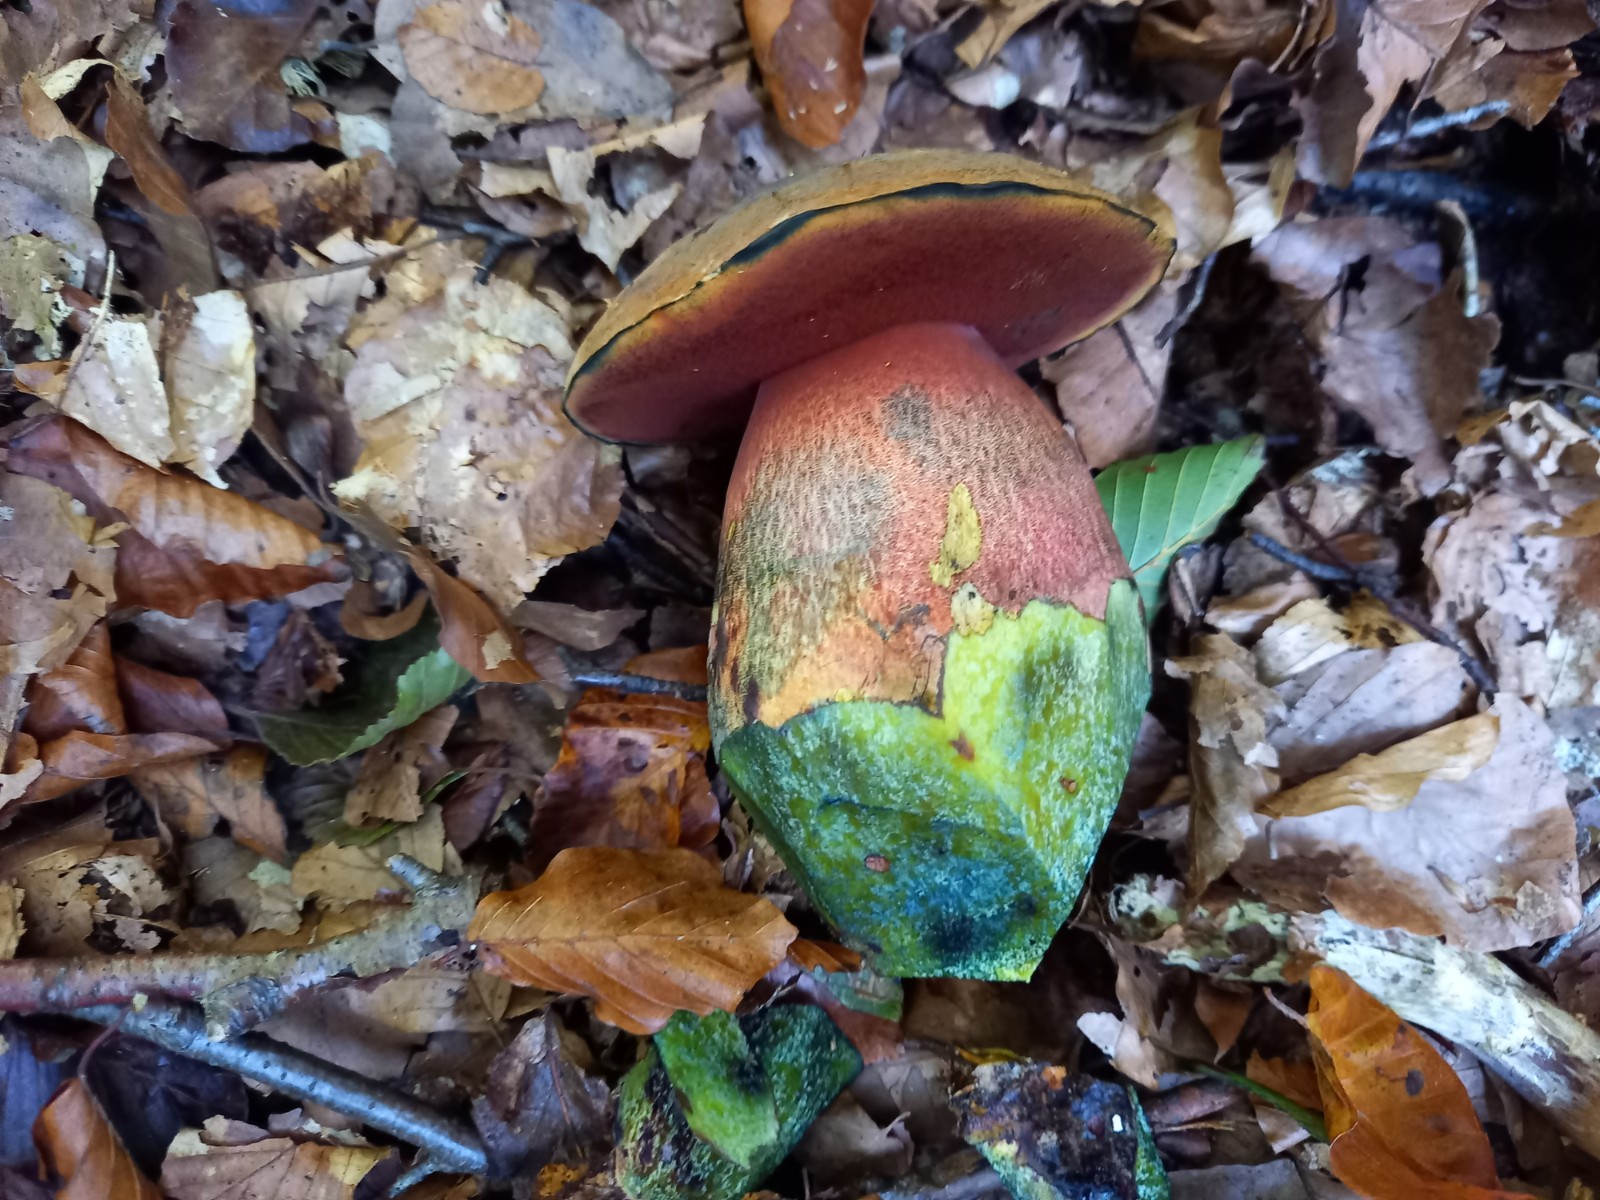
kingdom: Fungi
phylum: Basidiomycota
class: Agaricomycetes
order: Boletales
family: Boletaceae
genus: Neoboletus
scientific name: Neoboletus erythropus
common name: punktstokket indigorørhat
